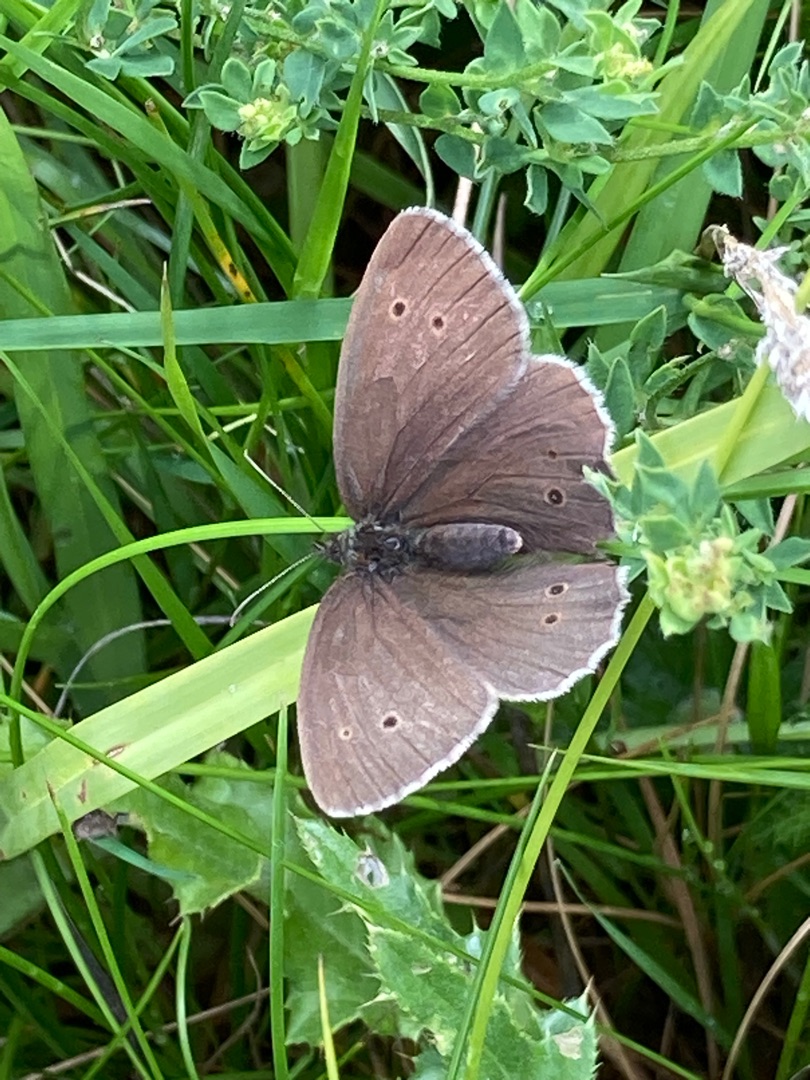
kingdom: Animalia
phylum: Arthropoda
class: Insecta
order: Lepidoptera
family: Nymphalidae
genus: Aphantopus
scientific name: Aphantopus hyperantus
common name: Engrandøje
